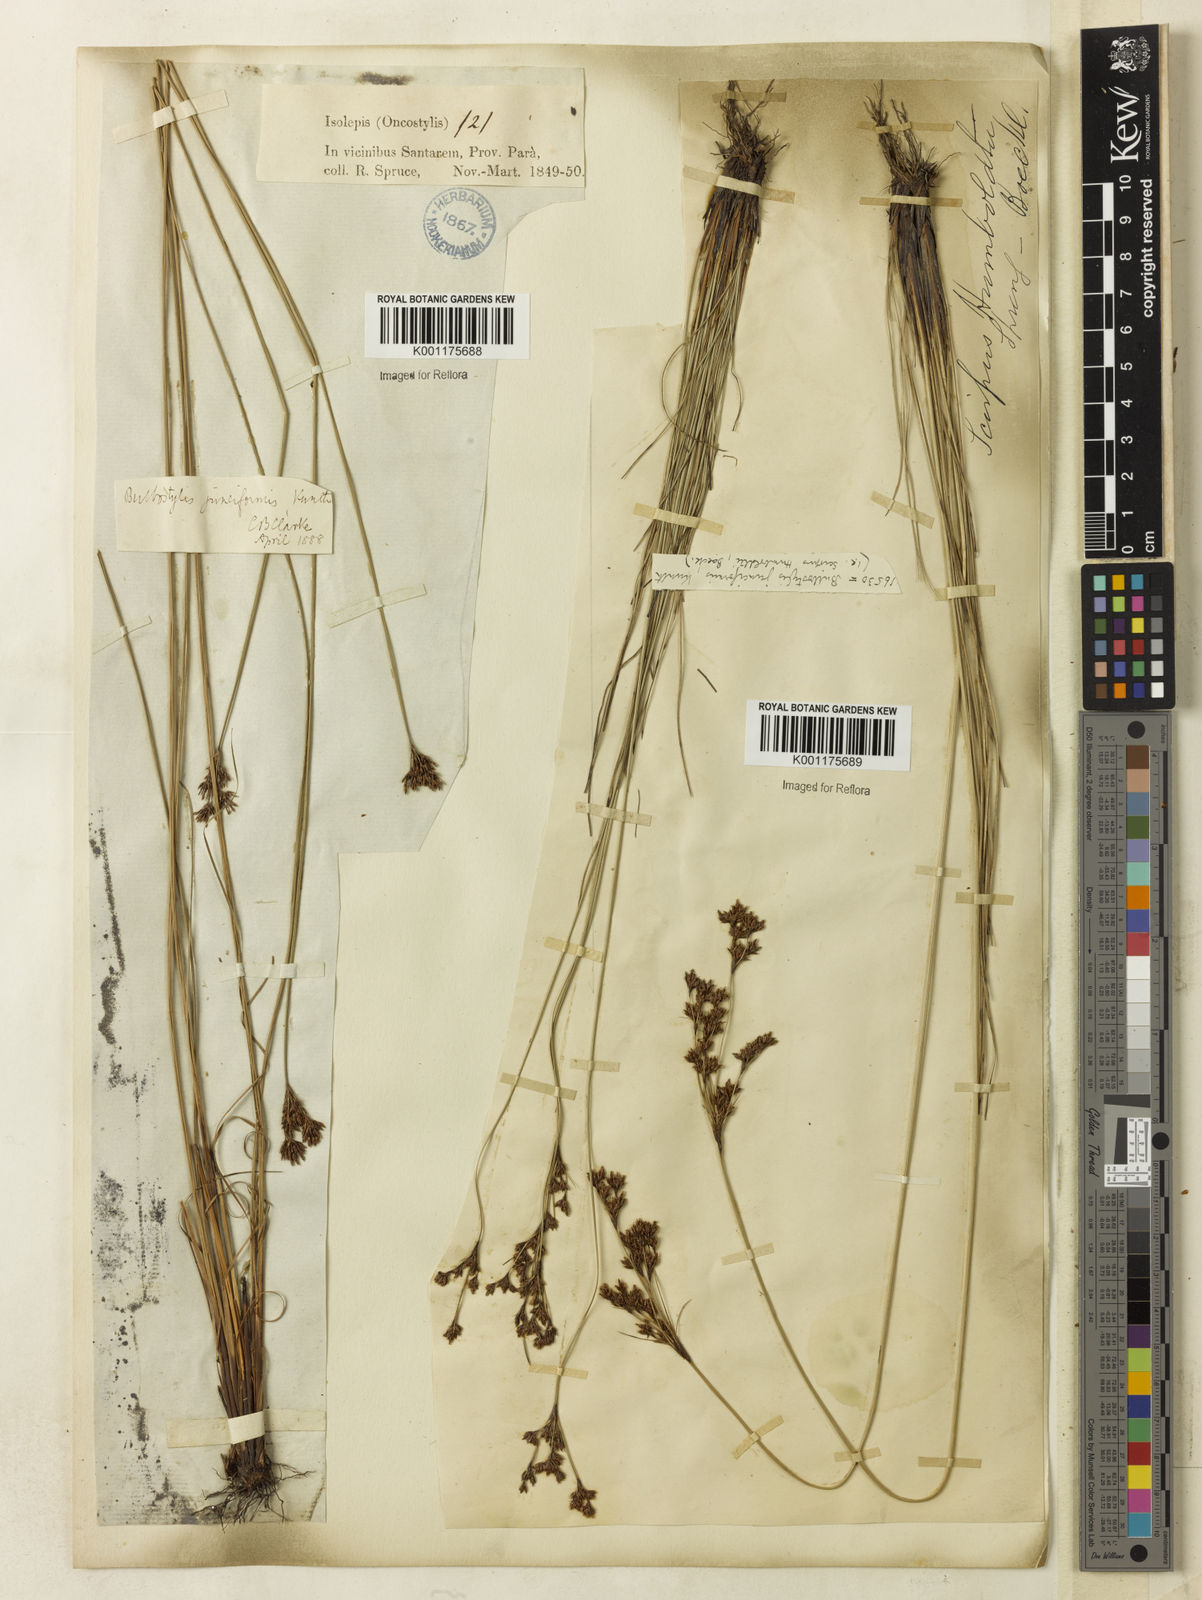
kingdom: Plantae
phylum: Tracheophyta
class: Liliopsida
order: Poales
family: Cyperaceae
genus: Bulbostylis
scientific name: Bulbostylis junciformis
